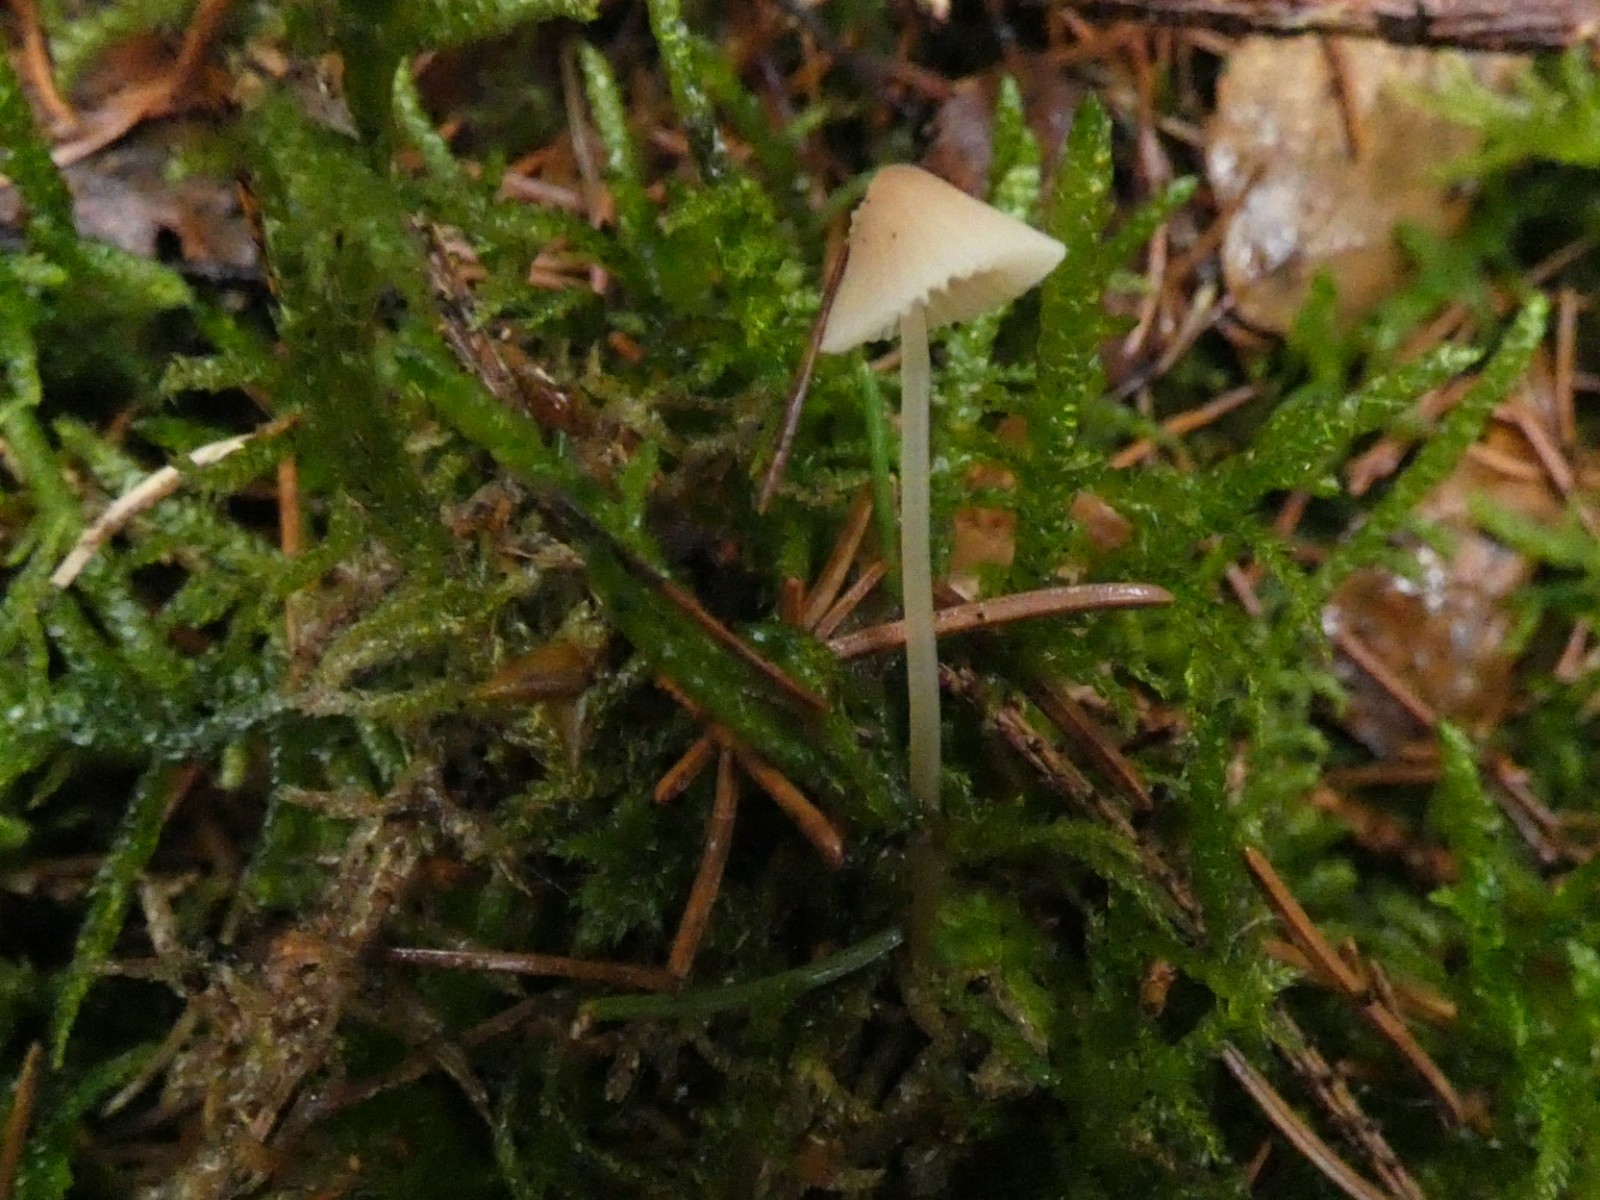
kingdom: Fungi
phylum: Basidiomycota
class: Agaricomycetes
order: Agaricales
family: Mycenaceae
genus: Mycena
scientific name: Mycena metata
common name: rødlig huesvamp
